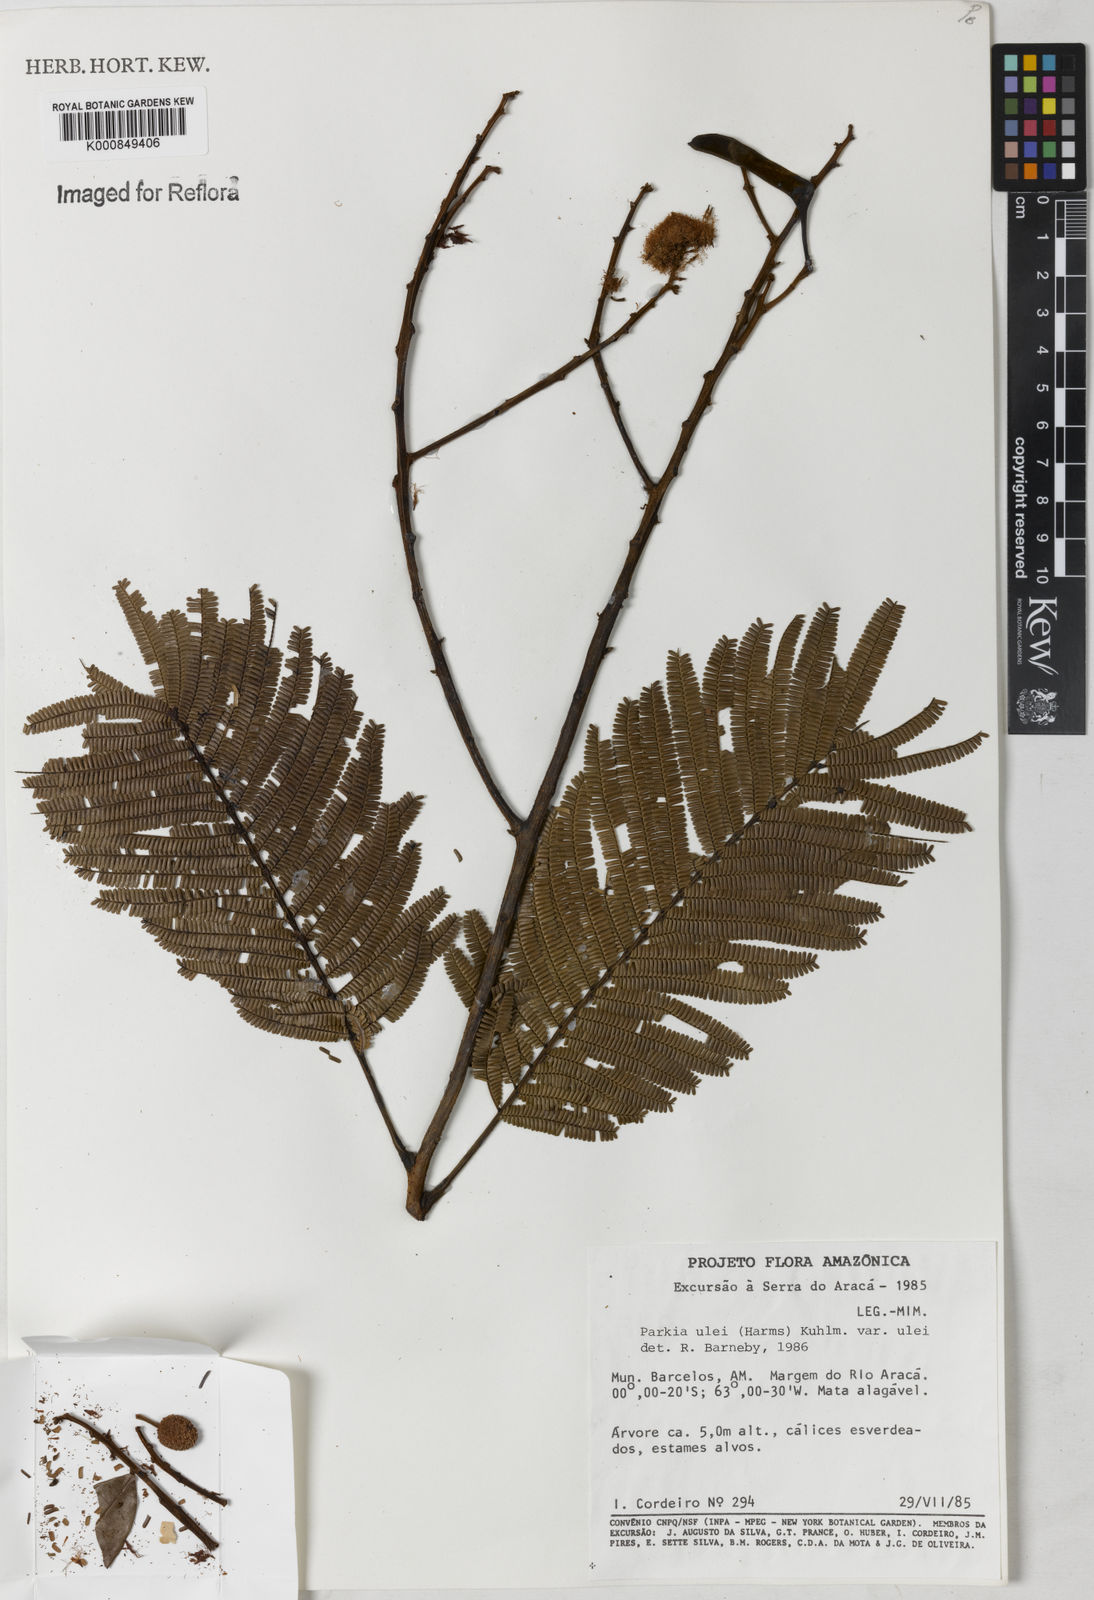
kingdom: Plantae
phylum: Tracheophyta
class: Magnoliopsida
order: Fabales
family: Fabaceae
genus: Parkia
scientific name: Parkia ulei
